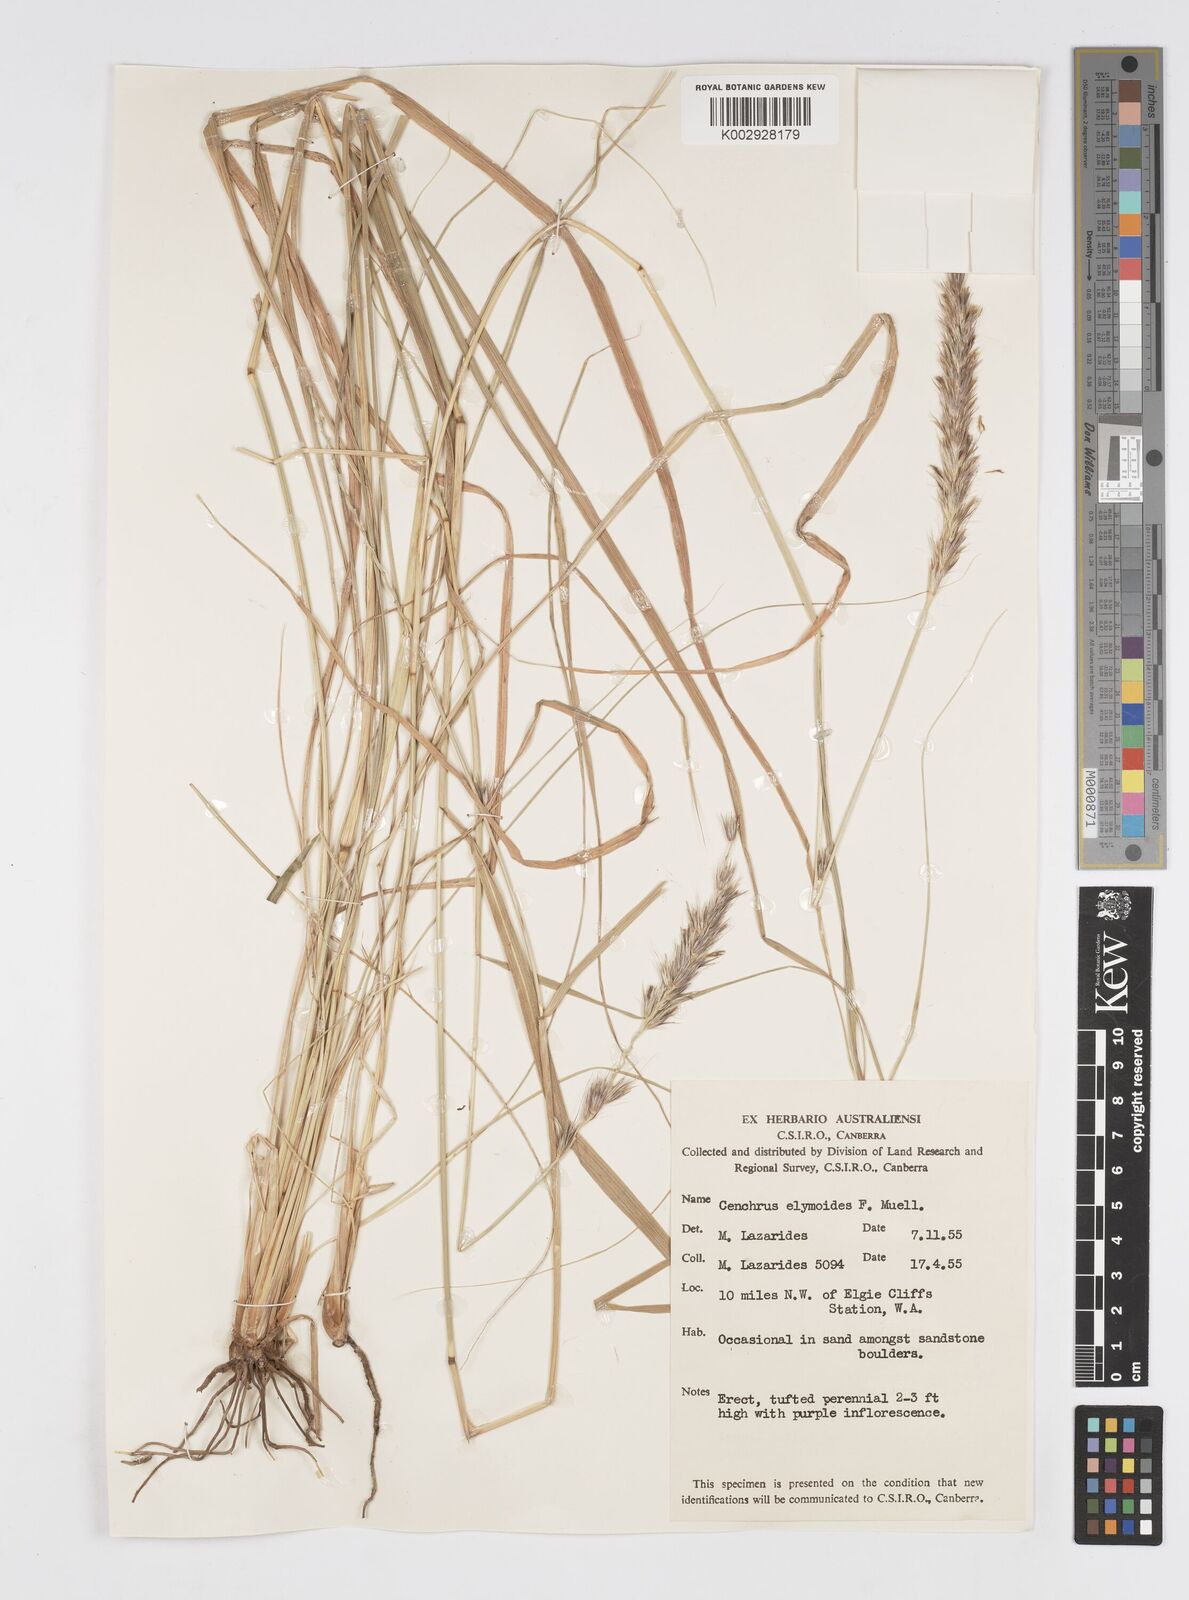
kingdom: Plantae
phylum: Tracheophyta
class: Liliopsida
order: Poales
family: Poaceae
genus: Cenchrus
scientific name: Cenchrus elymoides
